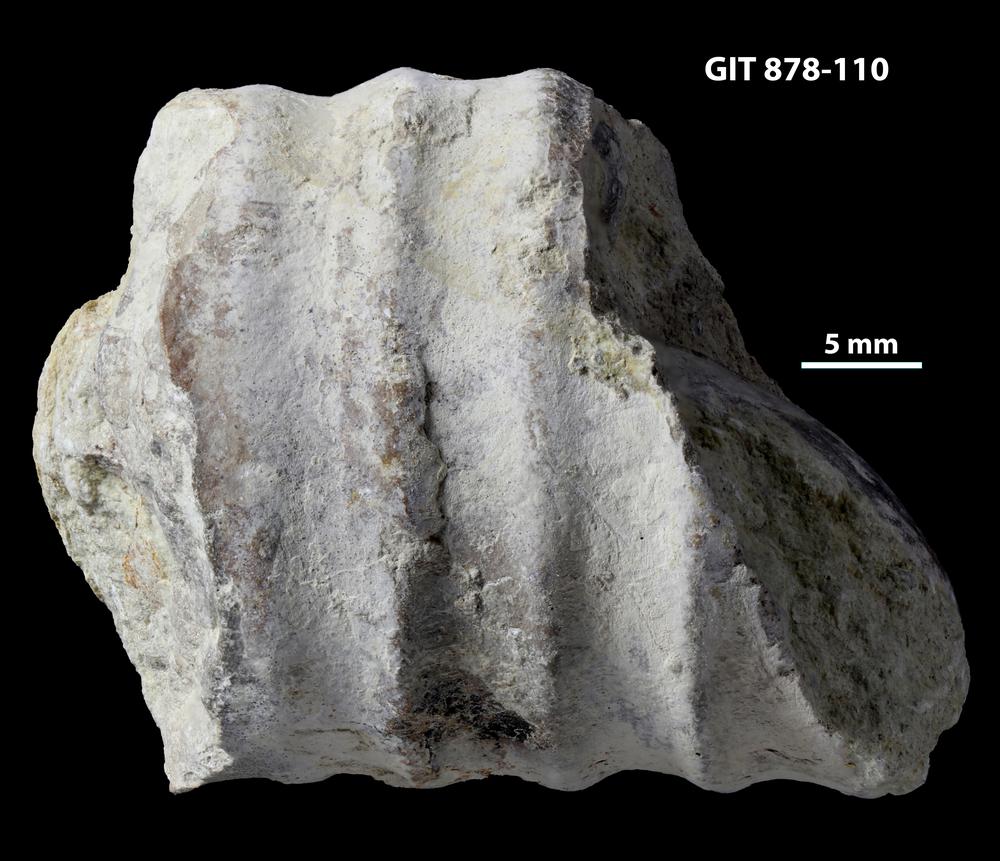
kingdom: Animalia
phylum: Mollusca
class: Cephalopoda
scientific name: Cephalopoda
